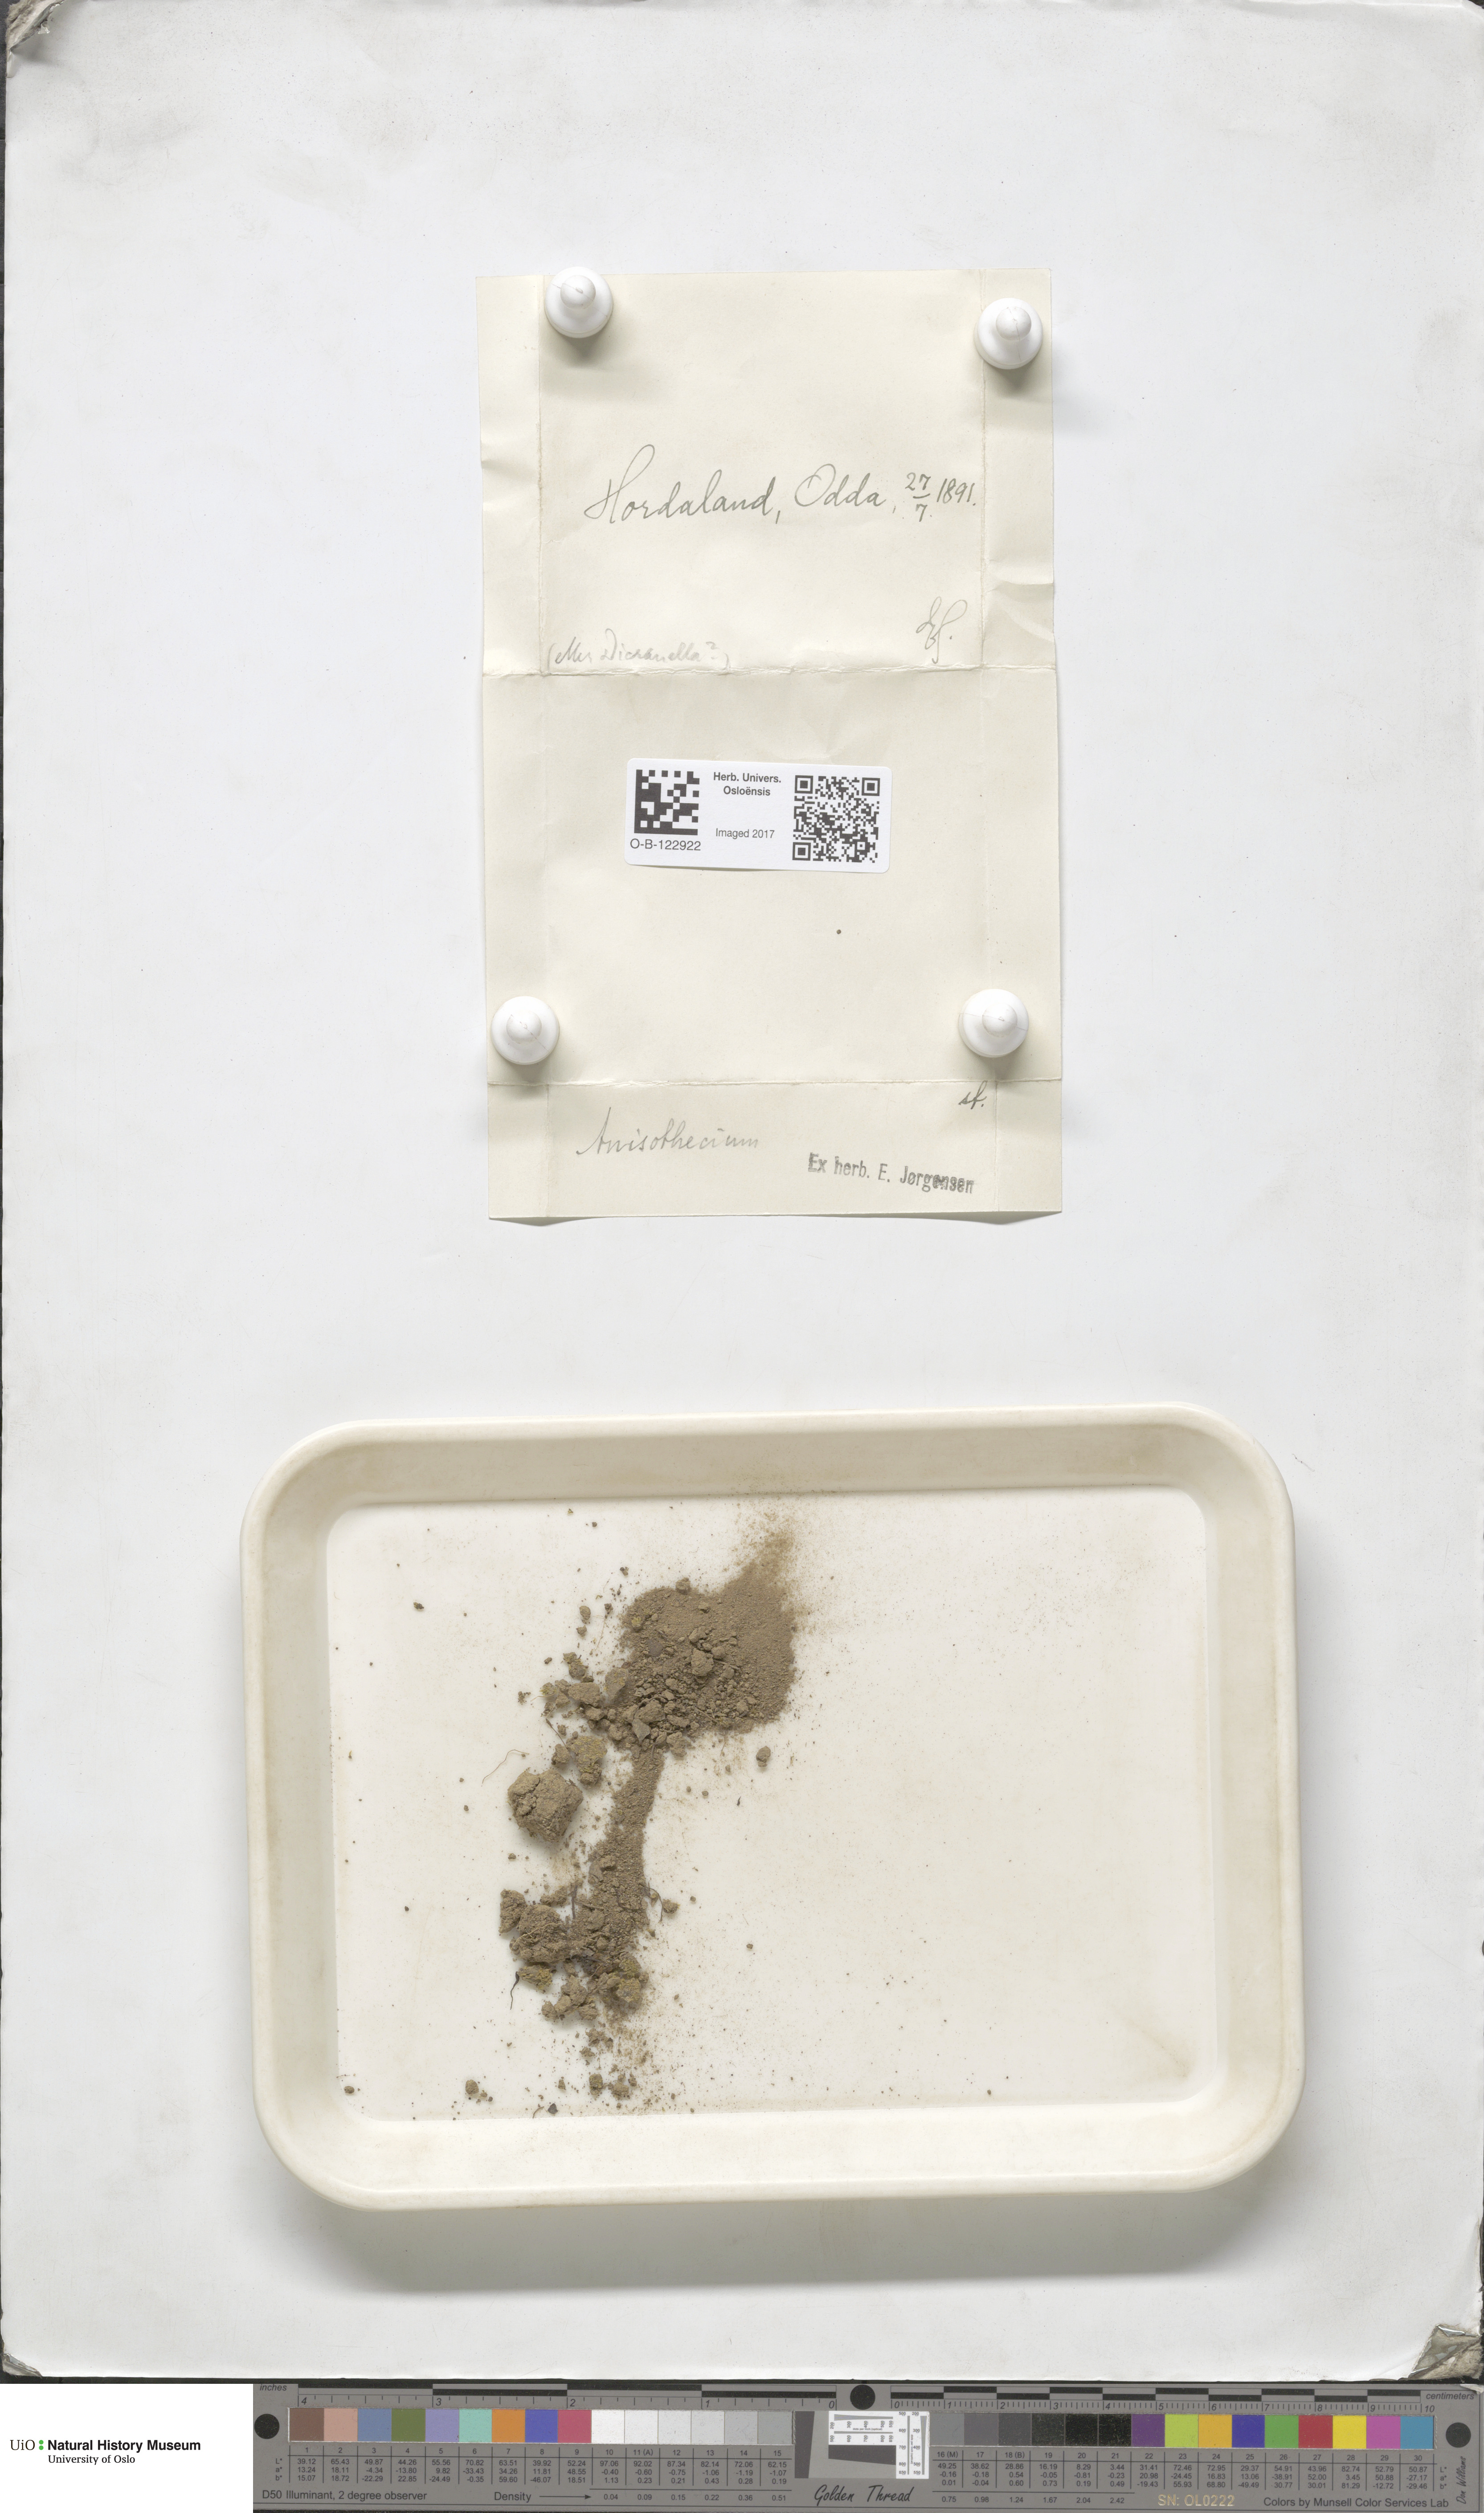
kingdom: Plantae
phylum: Bryophyta
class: Bryopsida
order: Dicranales
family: Dicranellaceae
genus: Dicranella
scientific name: Dicranella
